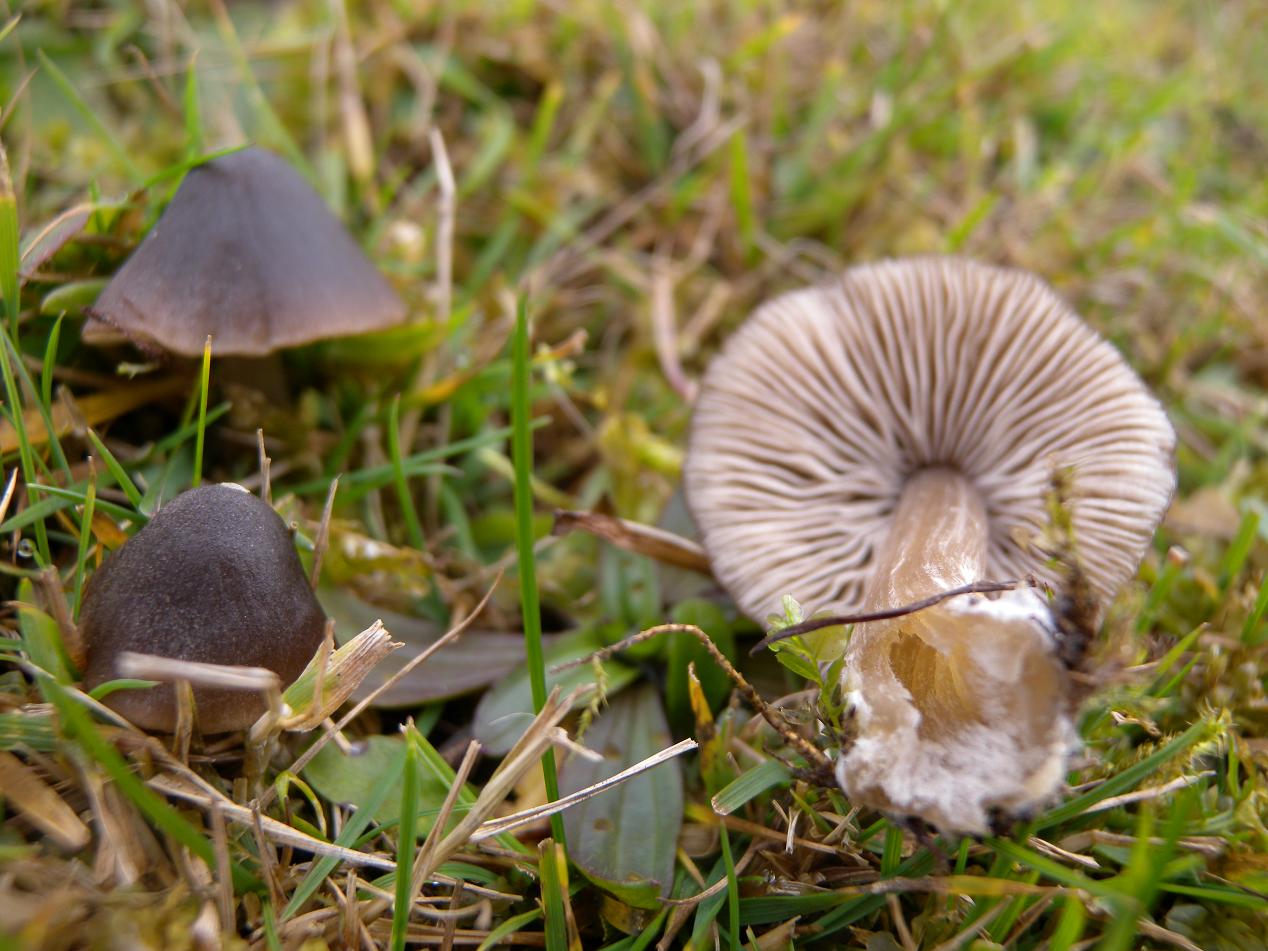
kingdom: Fungi
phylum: Basidiomycota
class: Agaricomycetes
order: Agaricales
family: Entolomataceae
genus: Entoloma
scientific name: Entoloma conferendum
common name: stjernesporet rødblad
